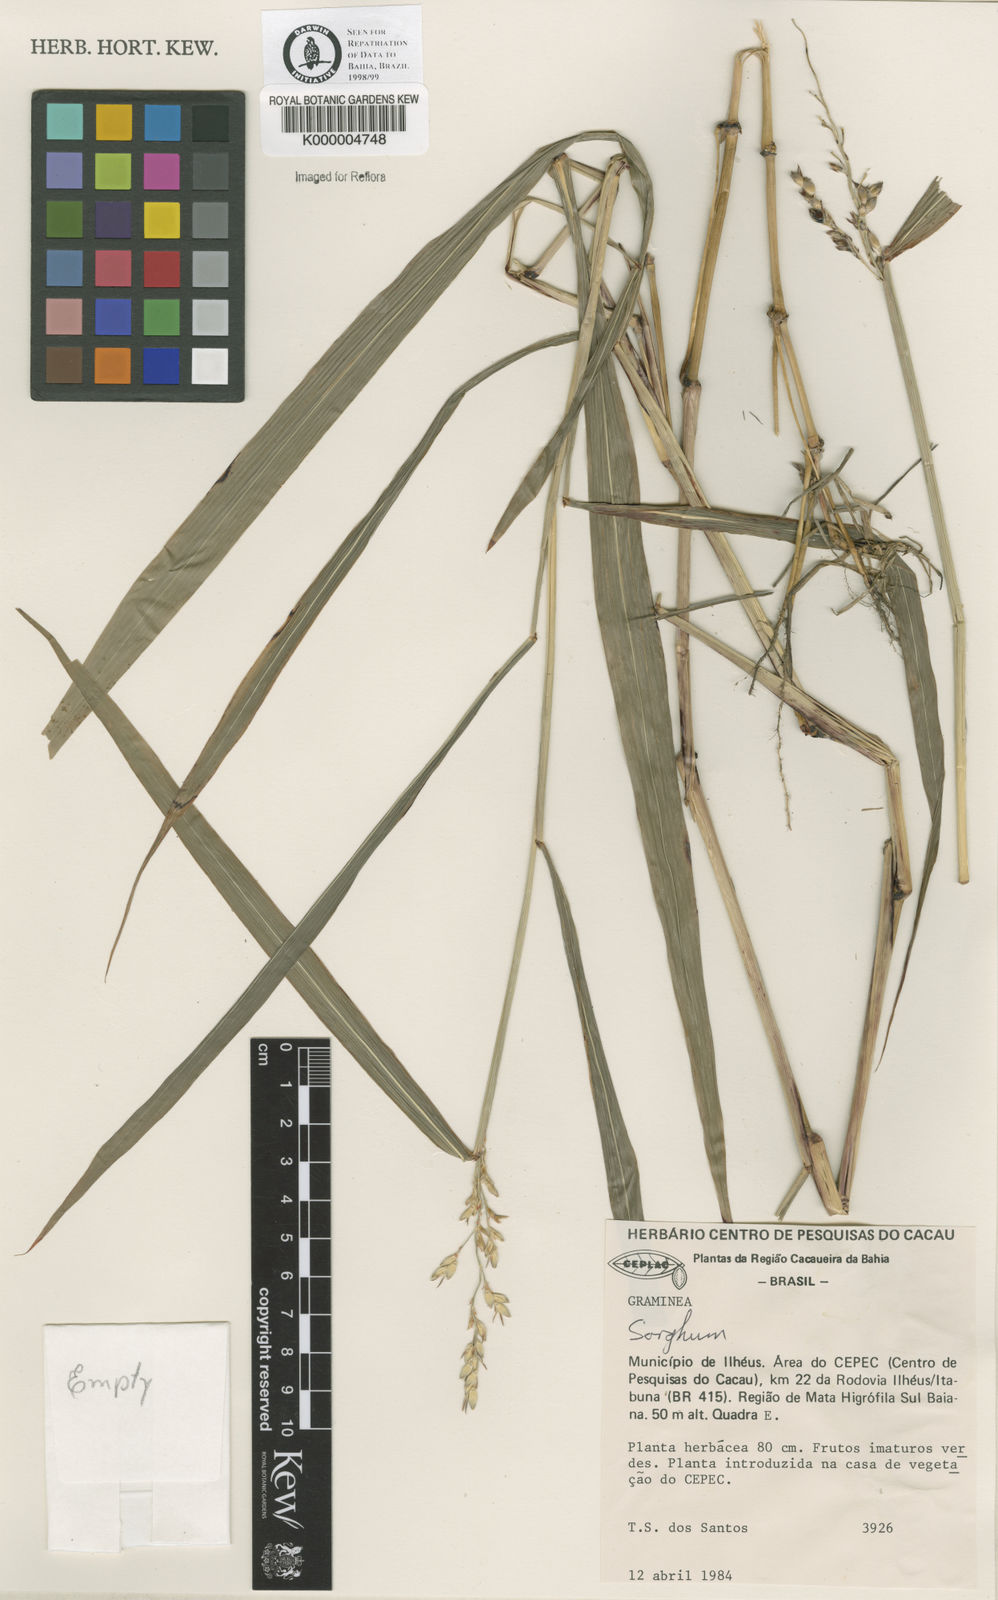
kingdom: Plantae
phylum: Tracheophyta
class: Liliopsida
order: Poales
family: Poaceae
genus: Sorghum
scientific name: Sorghum arundinaceum
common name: Sorghum
